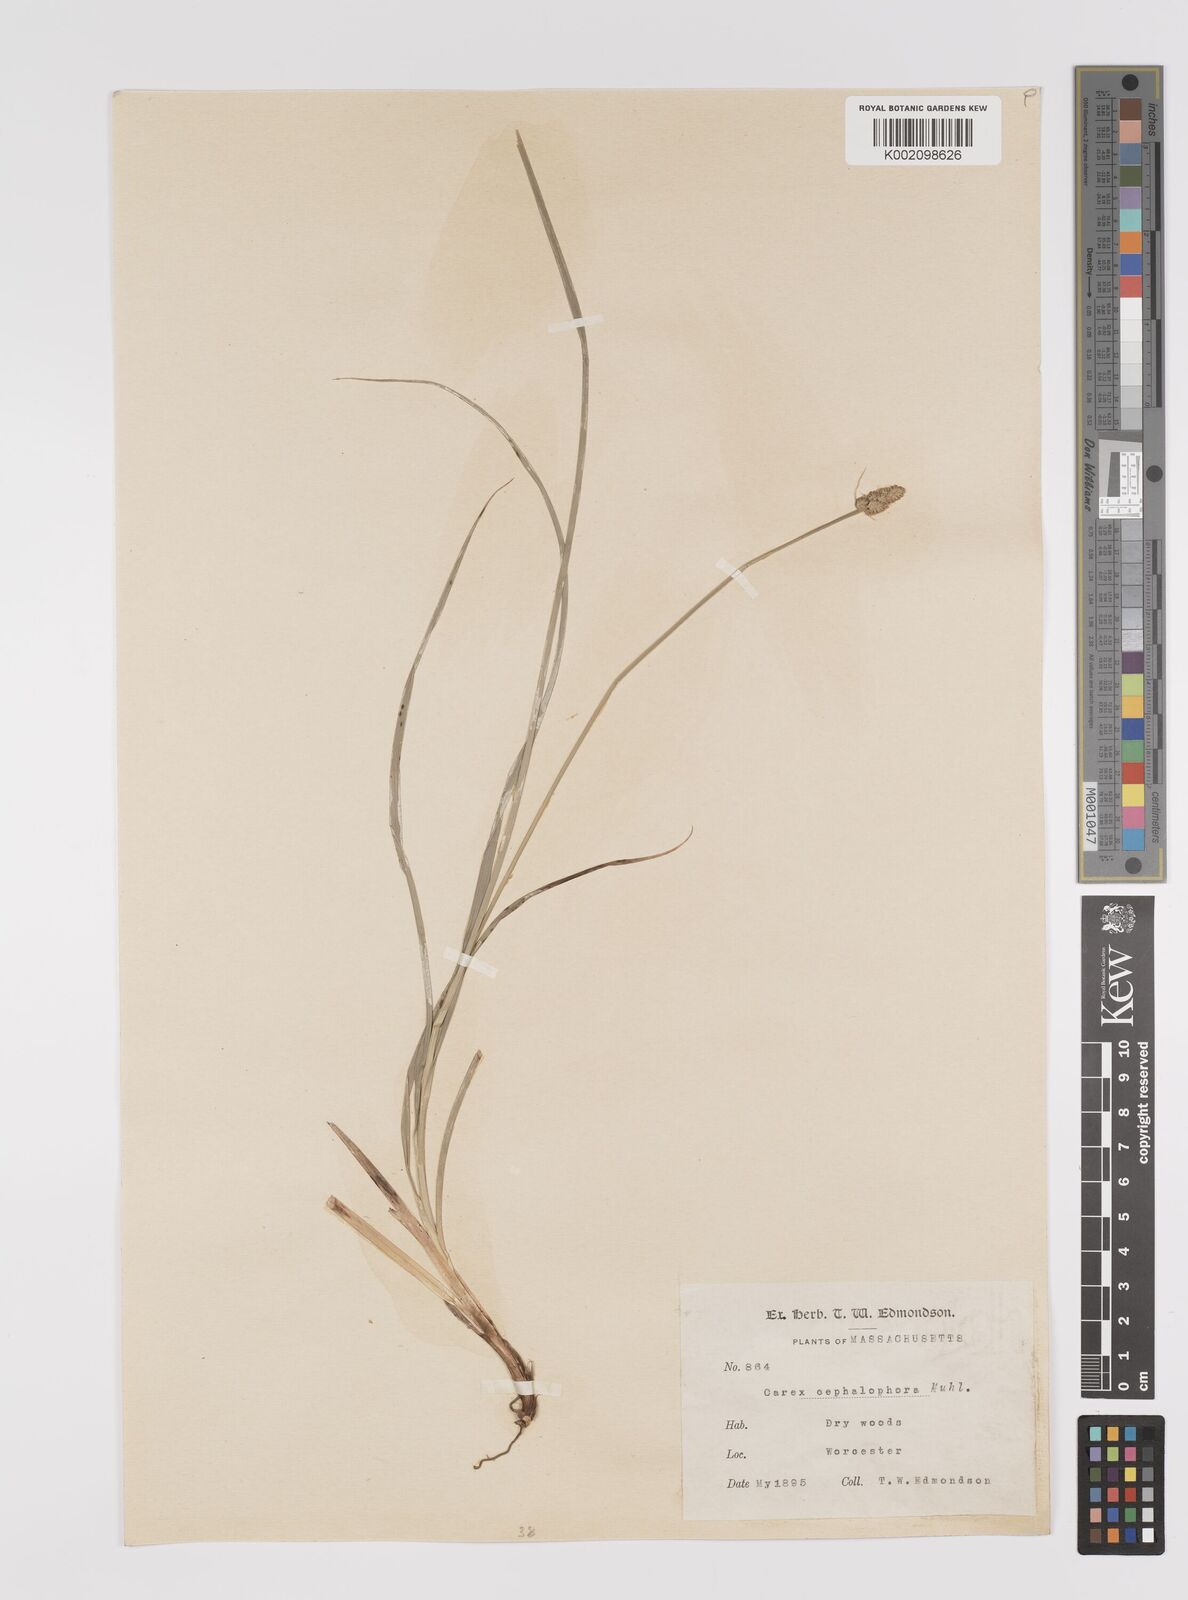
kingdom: Plantae
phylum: Tracheophyta
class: Liliopsida
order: Poales
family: Cyperaceae
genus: Carex
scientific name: Carex cephalophora
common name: Oval-headed sedge
